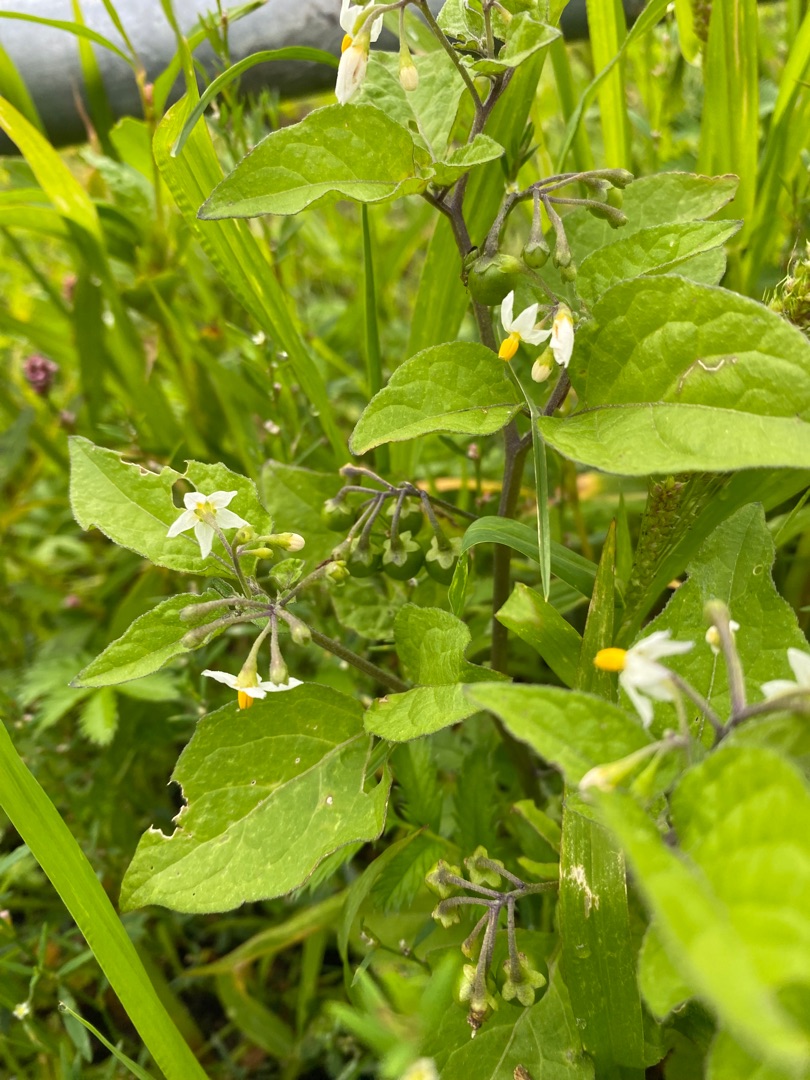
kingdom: Plantae
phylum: Tracheophyta
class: Magnoliopsida
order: Solanales
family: Solanaceae
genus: Solanum
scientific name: Solanum nigrum
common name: Sort natskygge (underart)
